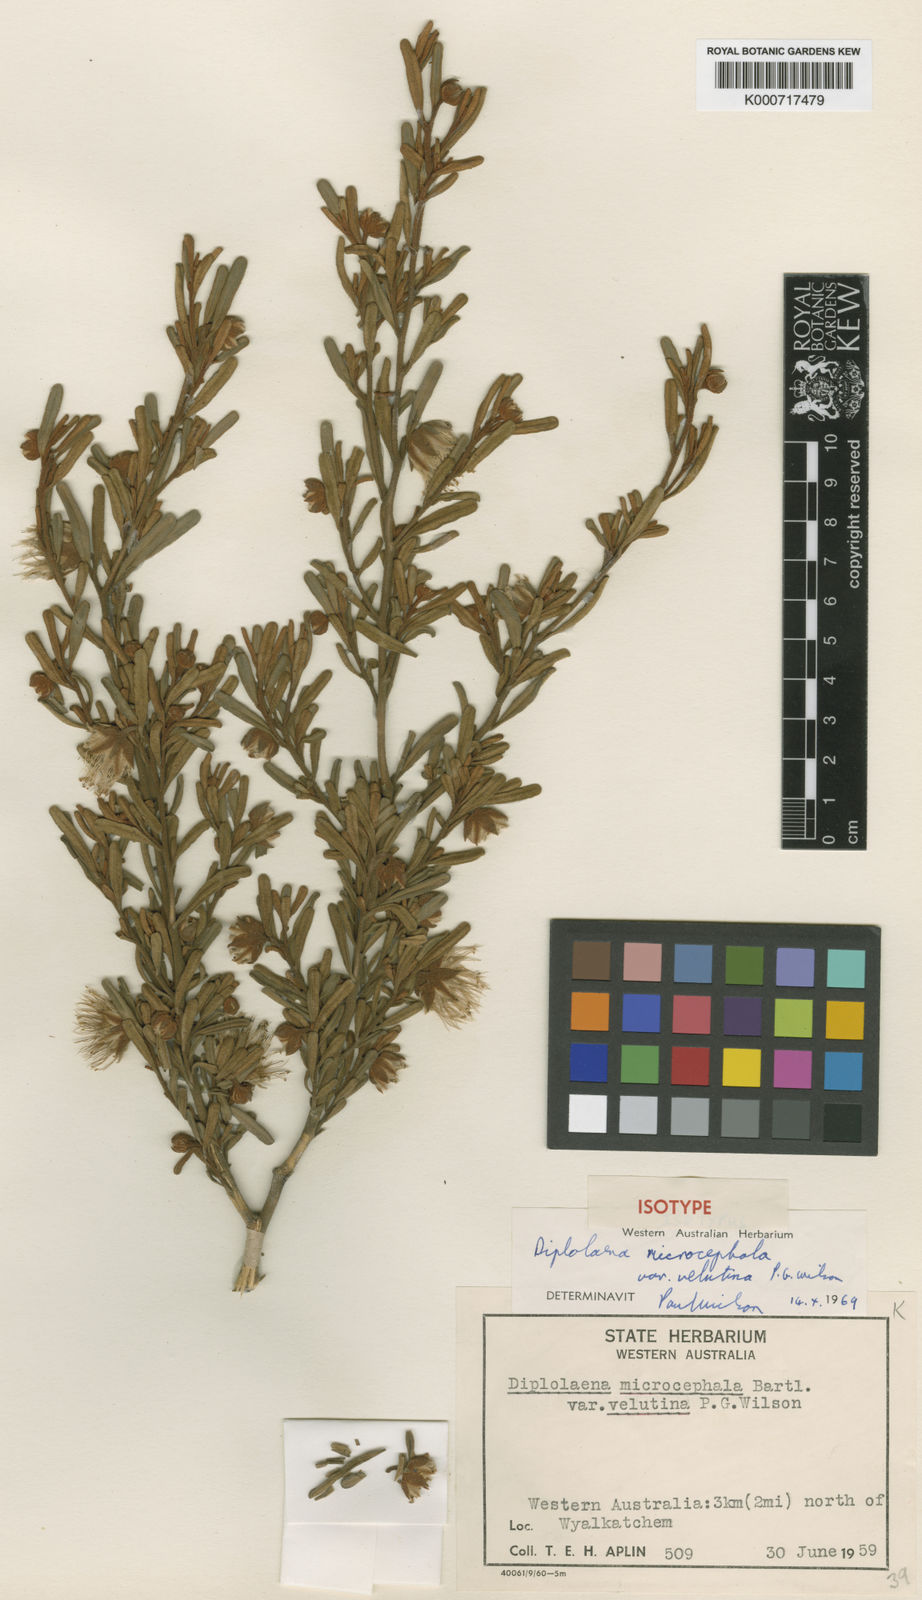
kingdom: Plantae
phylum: Tracheophyta
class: Magnoliopsida
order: Sapindales
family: Rutaceae
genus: Diplolaena
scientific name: Diplolaena velutina
